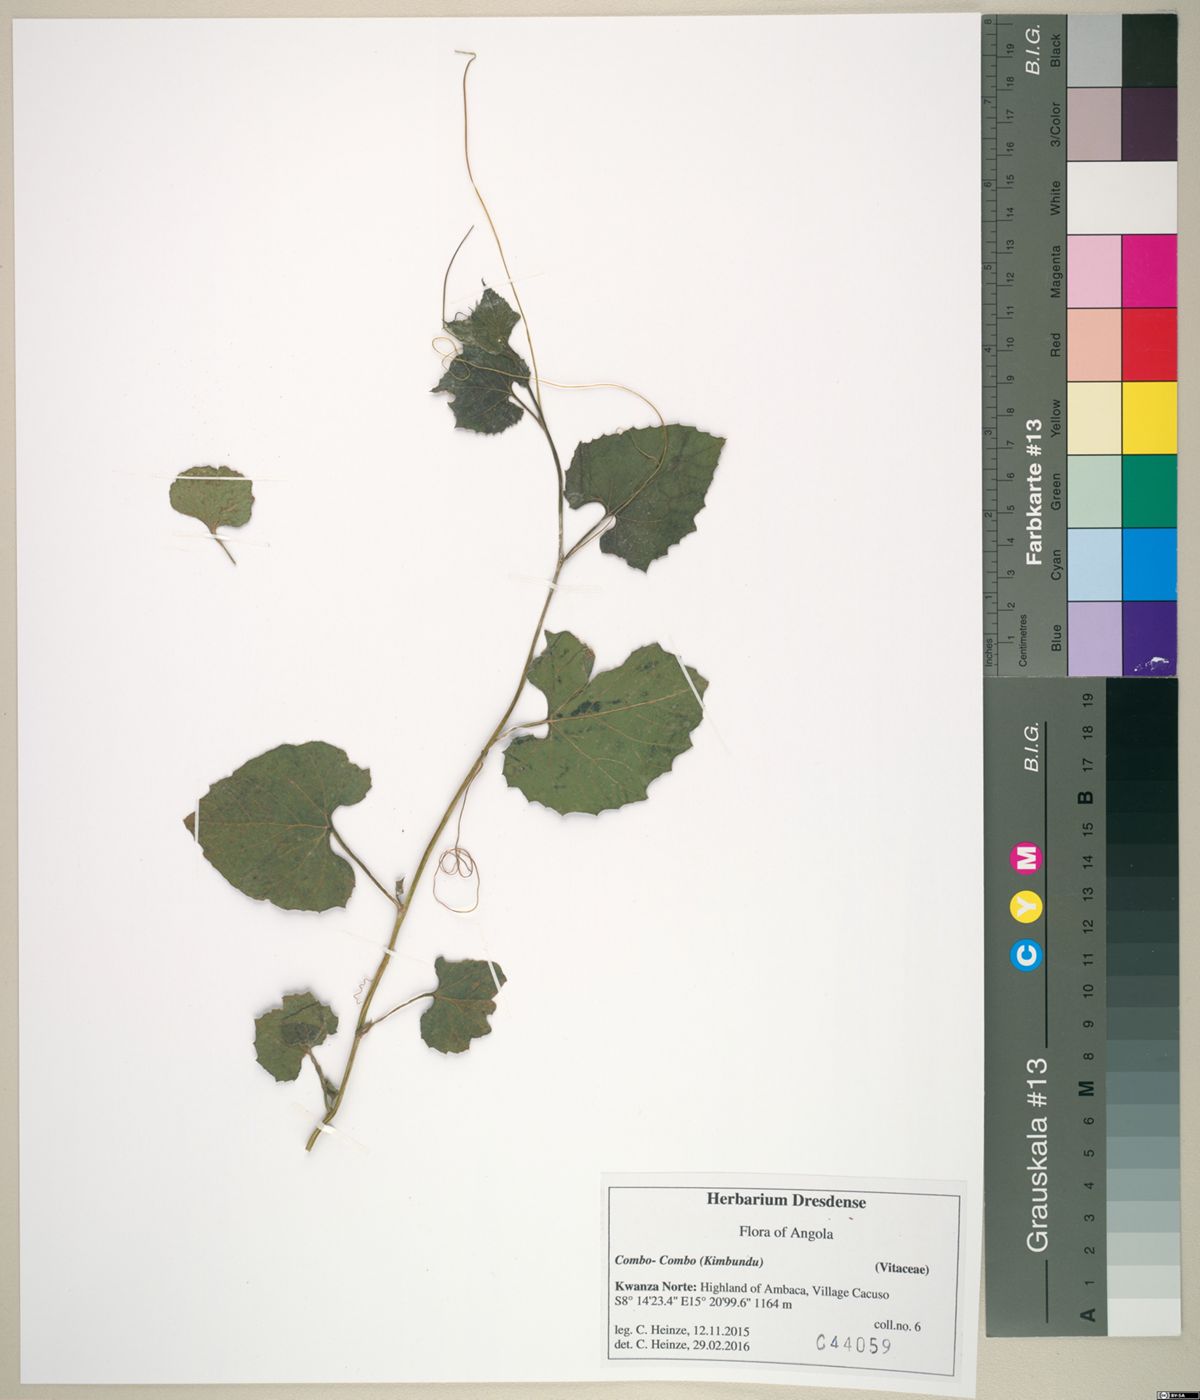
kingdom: Plantae
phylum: Tracheophyta
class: Magnoliopsida
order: Vitales
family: Vitaceae
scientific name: Vitaceae
